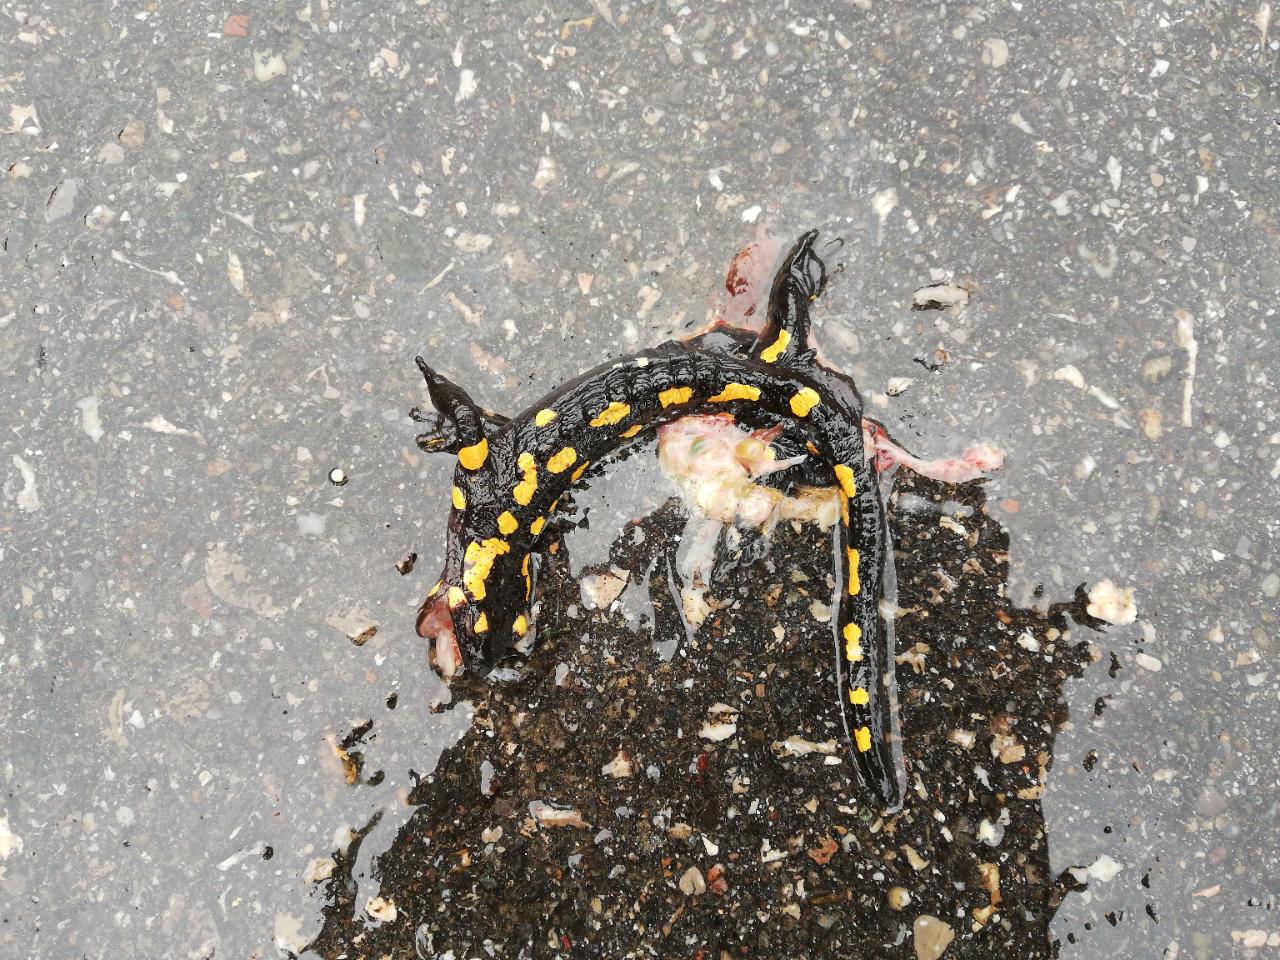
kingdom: Animalia
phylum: Chordata
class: Amphibia
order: Caudata
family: Salamandridae
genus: Salamandra
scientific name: Salamandra salamandra
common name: Fire salamander
